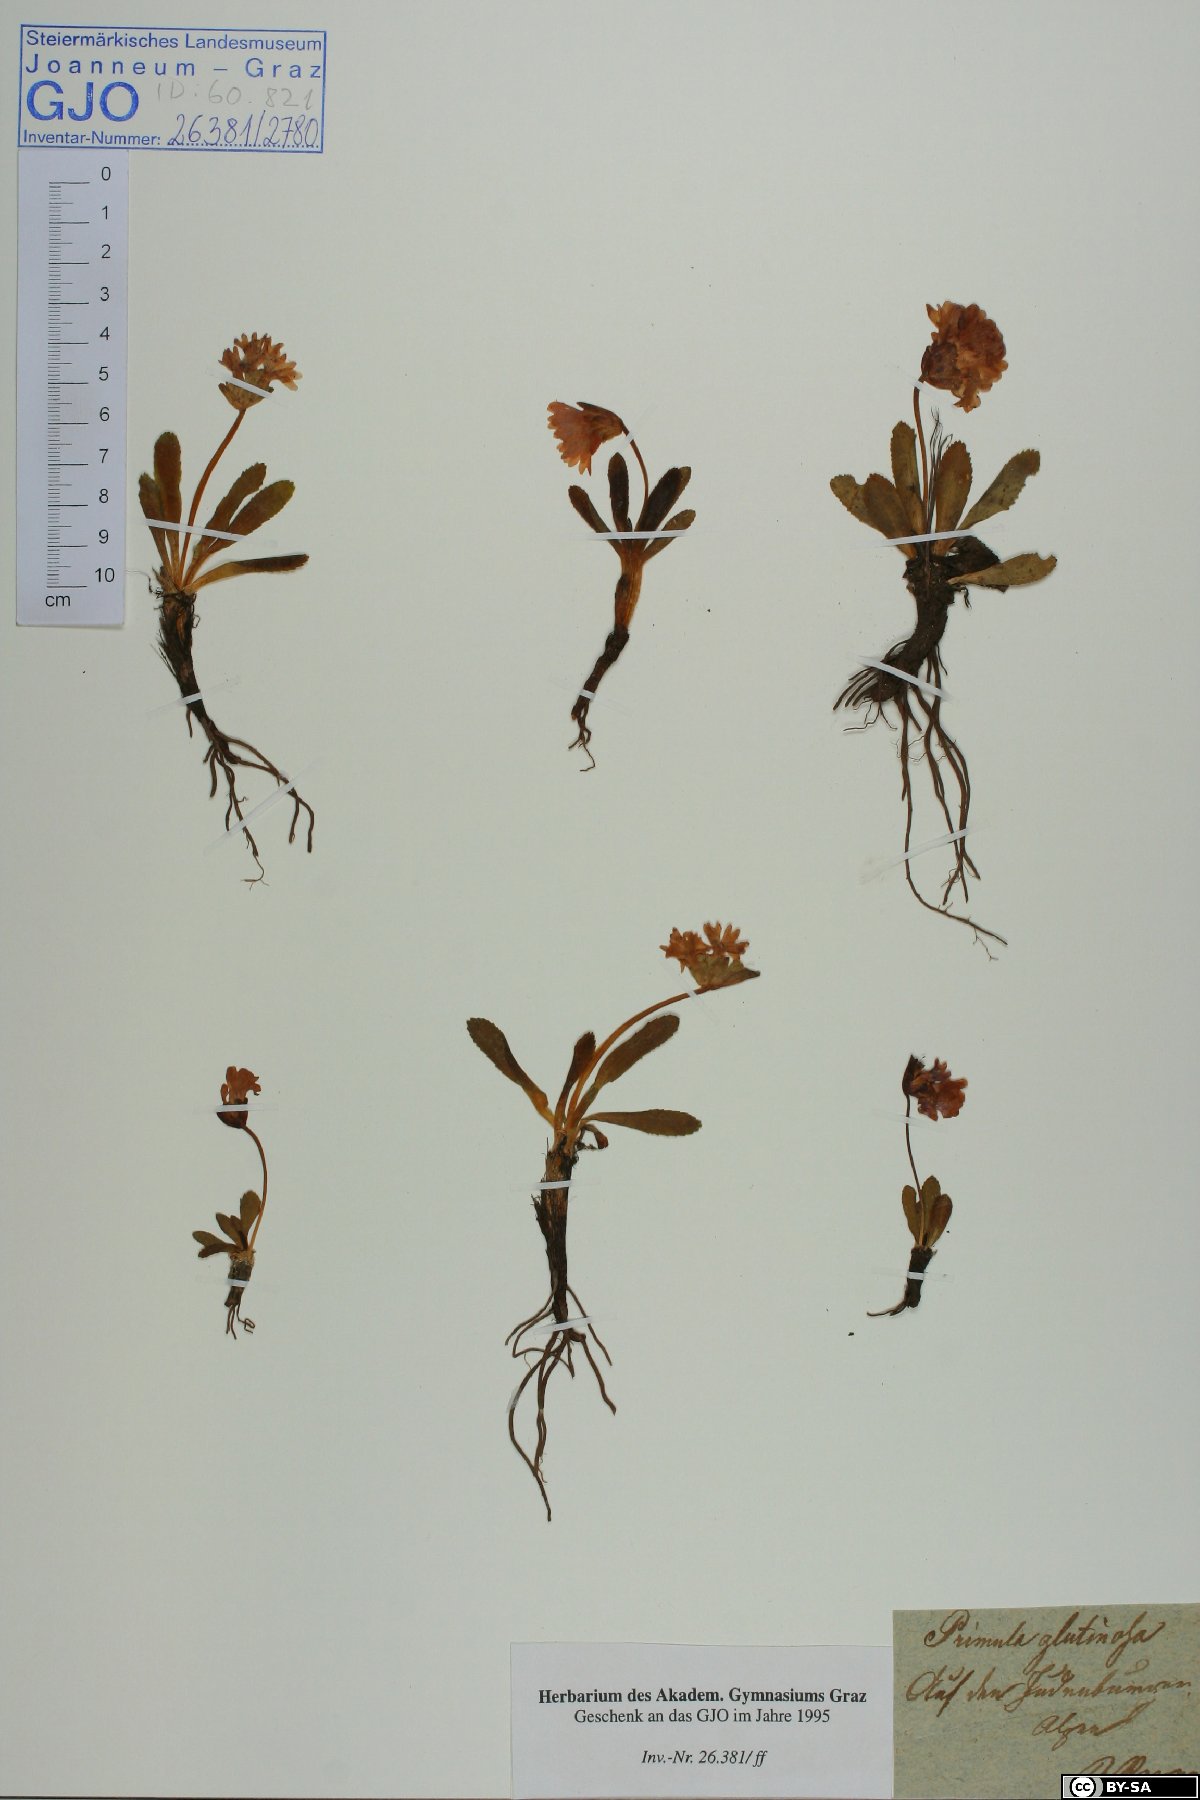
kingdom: Plantae
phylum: Tracheophyta
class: Magnoliopsida
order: Ericales
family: Primulaceae
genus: Primula
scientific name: Primula glutinosa
